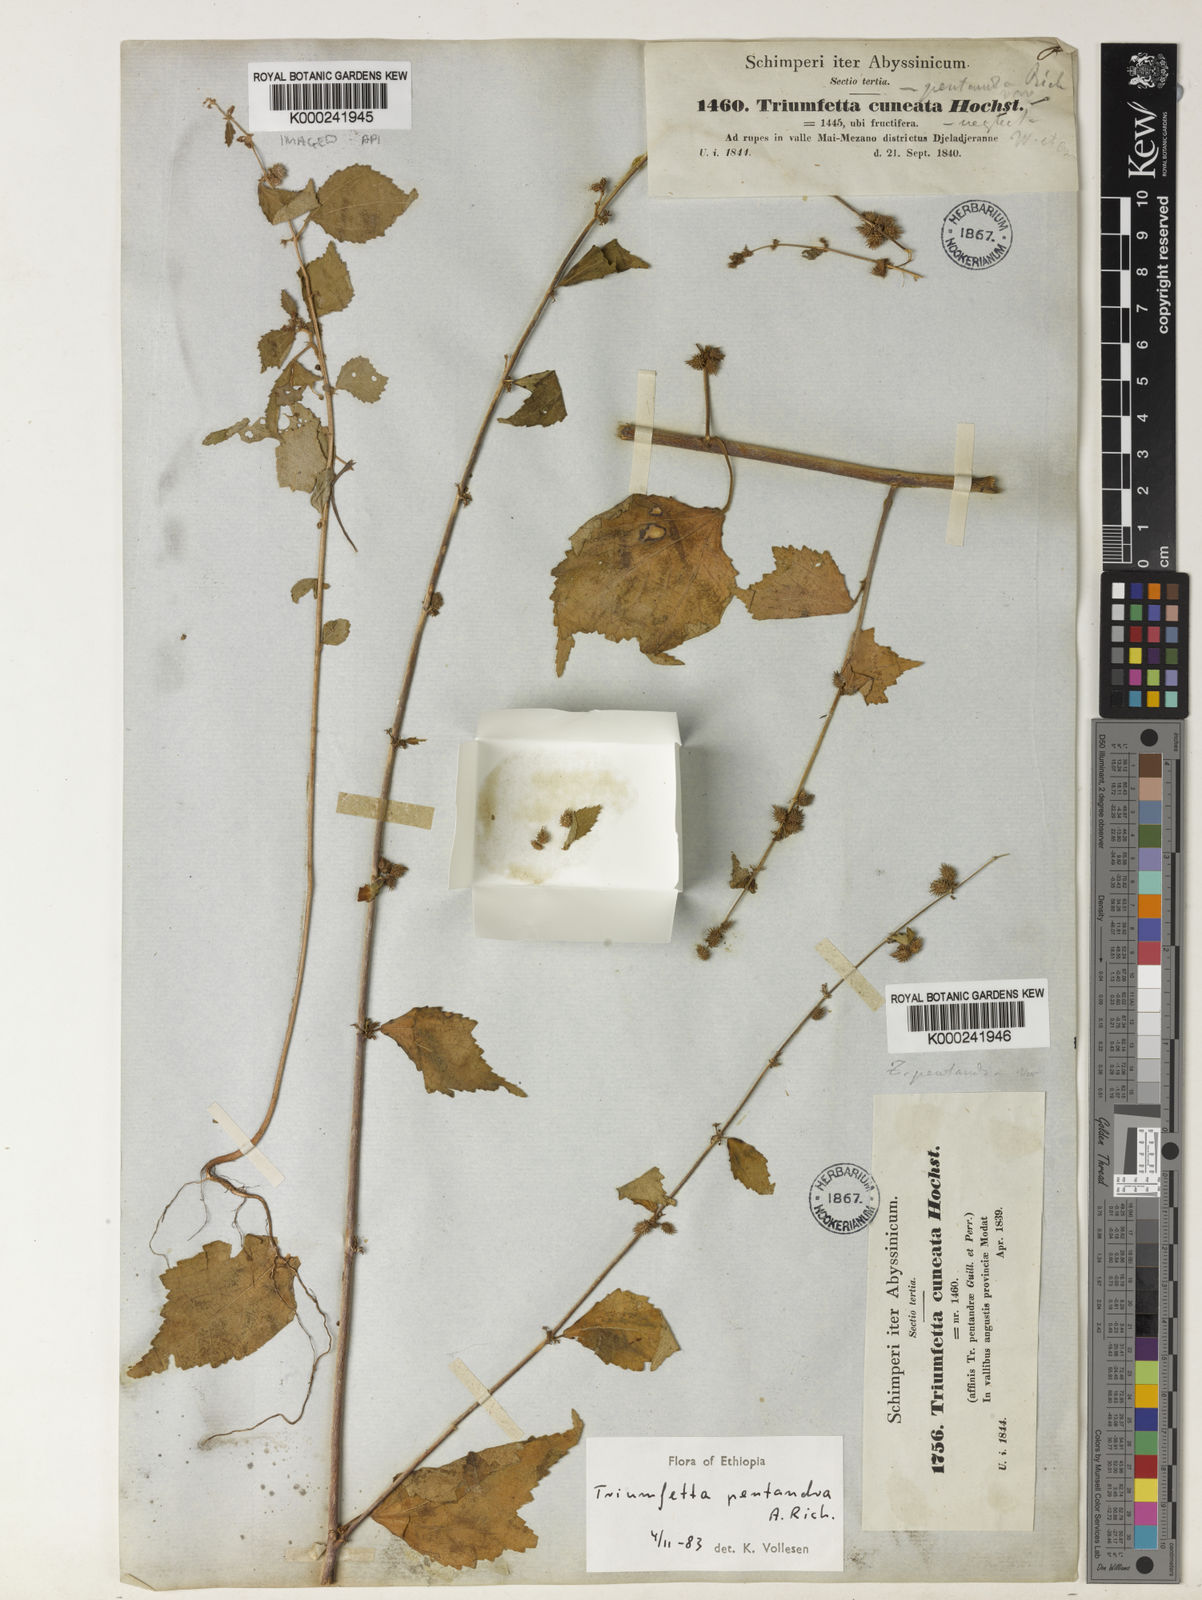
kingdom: Plantae
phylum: Tracheophyta
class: Magnoliopsida
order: Malvales
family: Malvaceae
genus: Triumfetta
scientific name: Triumfetta pentandra
